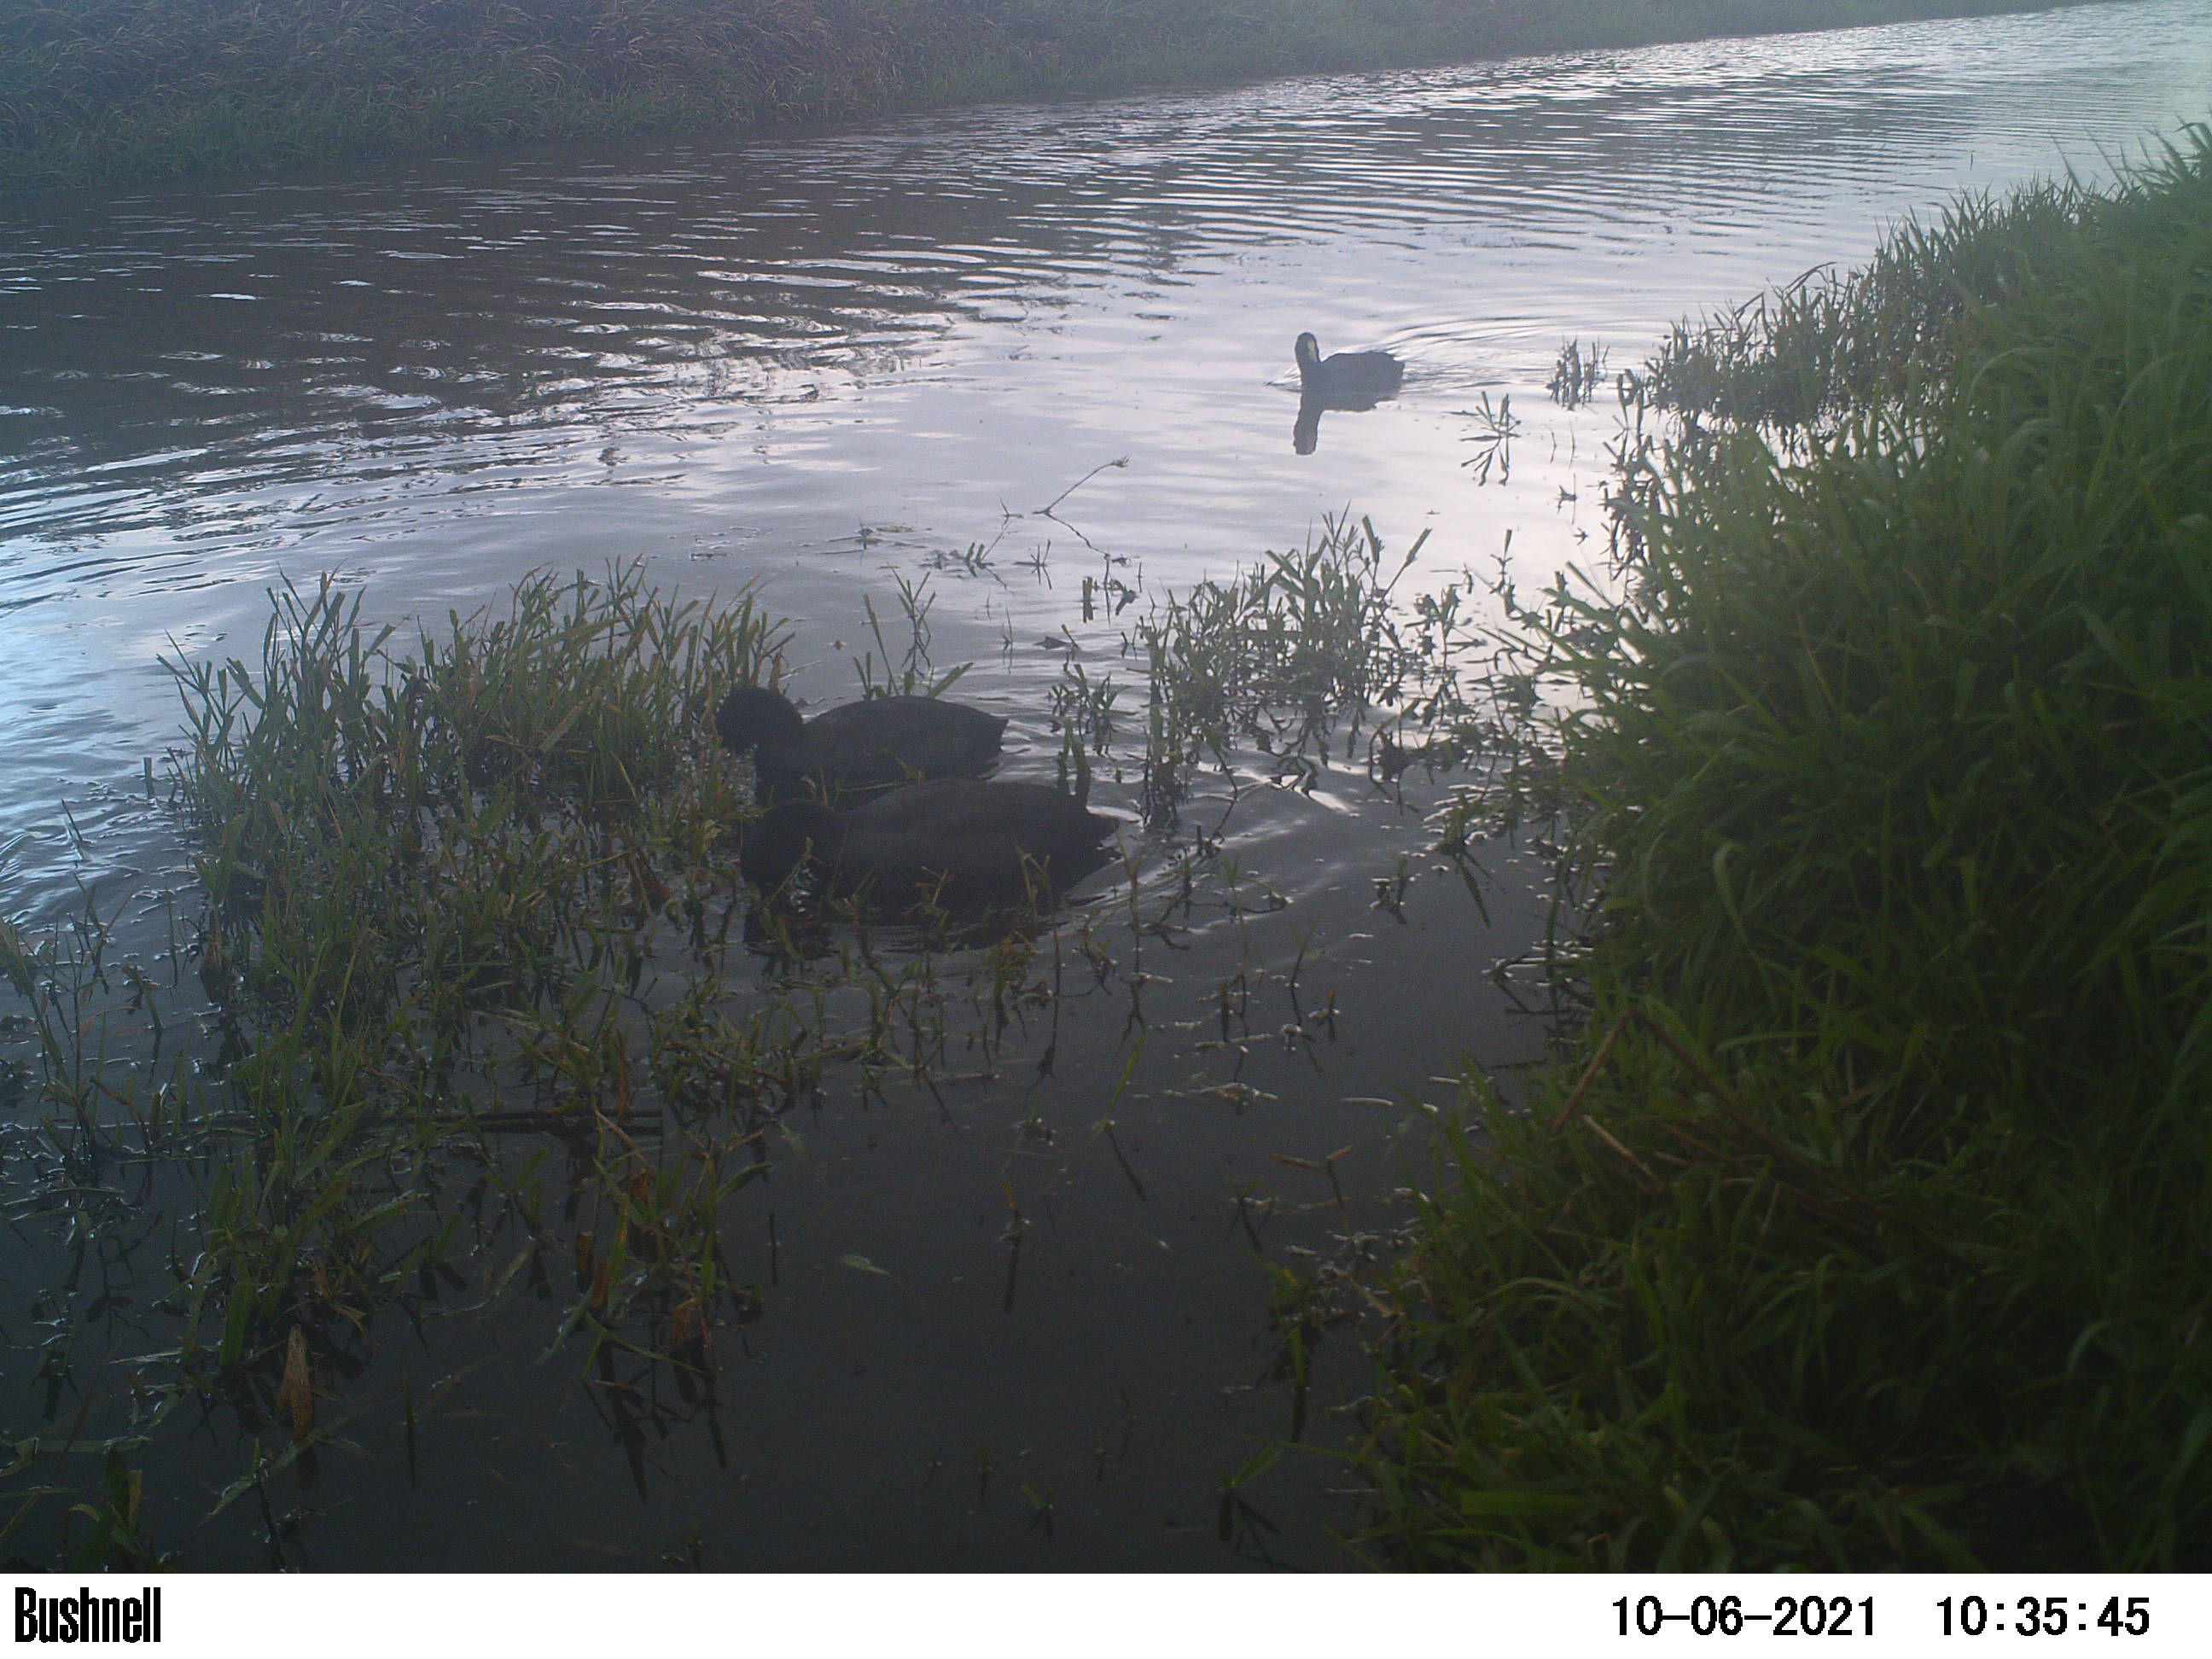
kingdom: Animalia
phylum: Chordata
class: Aves
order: Gruiformes
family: Rallidae
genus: Fulica
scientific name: Fulica atra
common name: Eurasian coot
